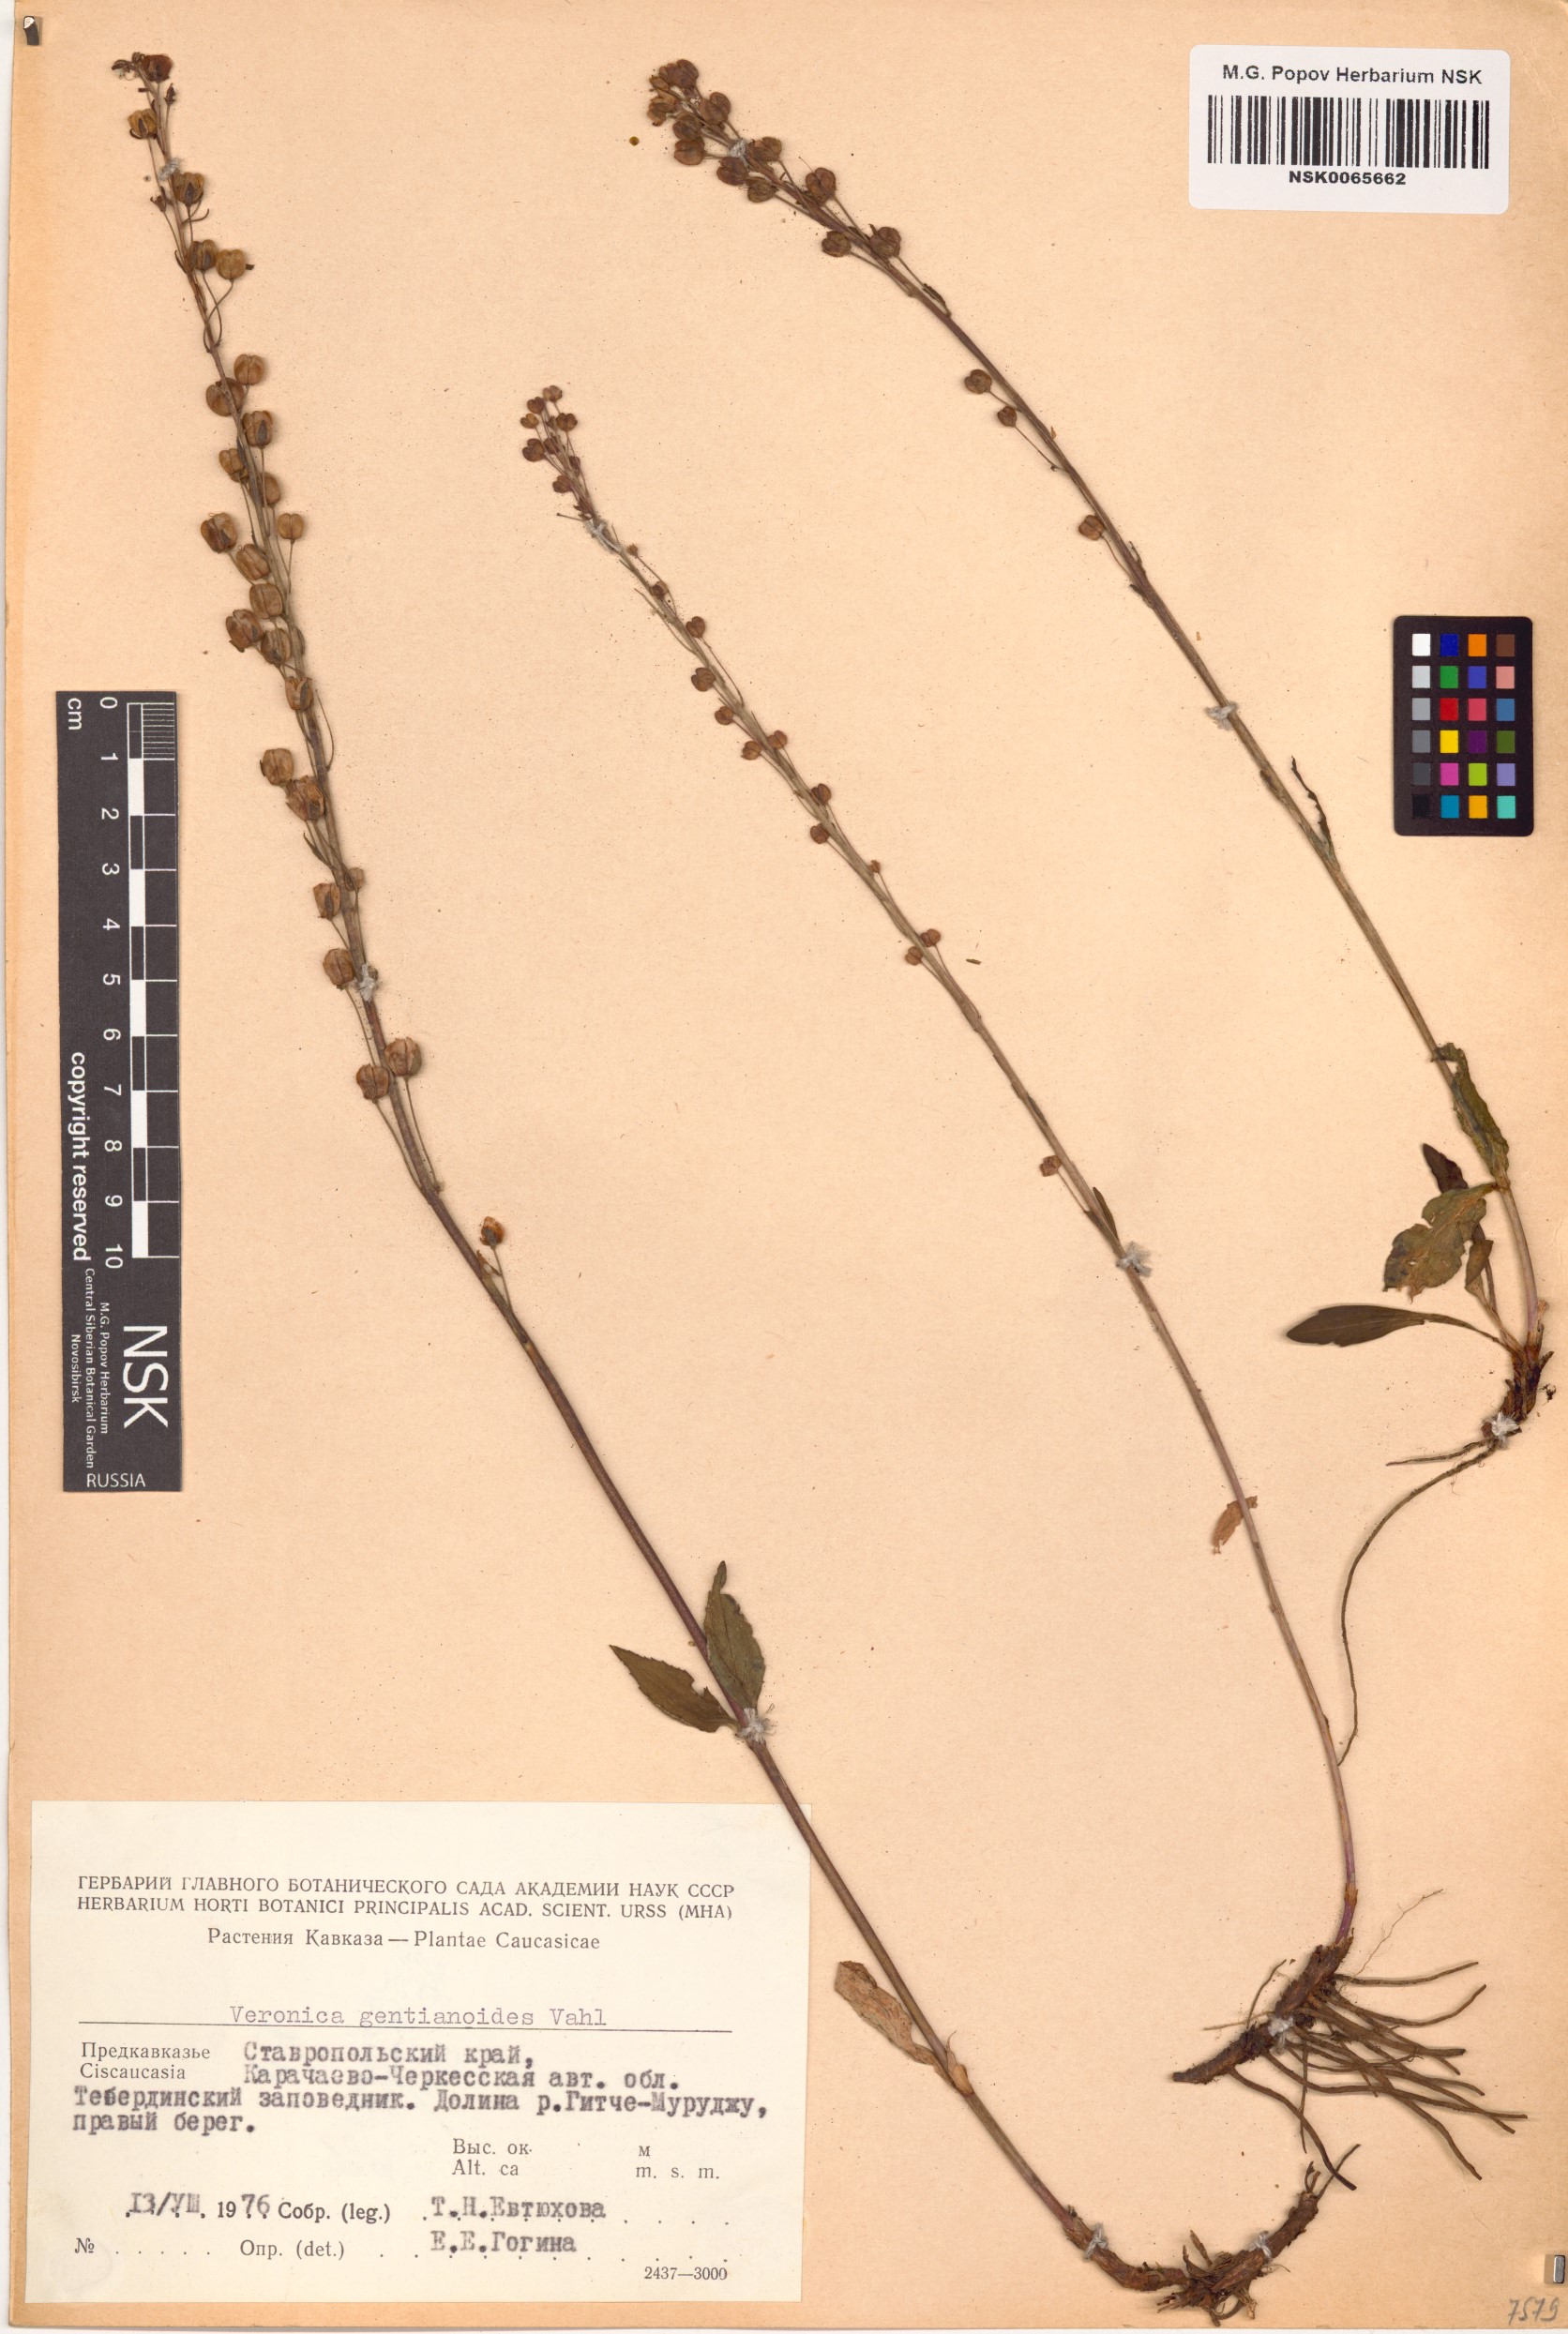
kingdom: Plantae
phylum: Tracheophyta
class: Magnoliopsida
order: Lamiales
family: Plantaginaceae
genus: Veronica
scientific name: Veronica gentianoides
